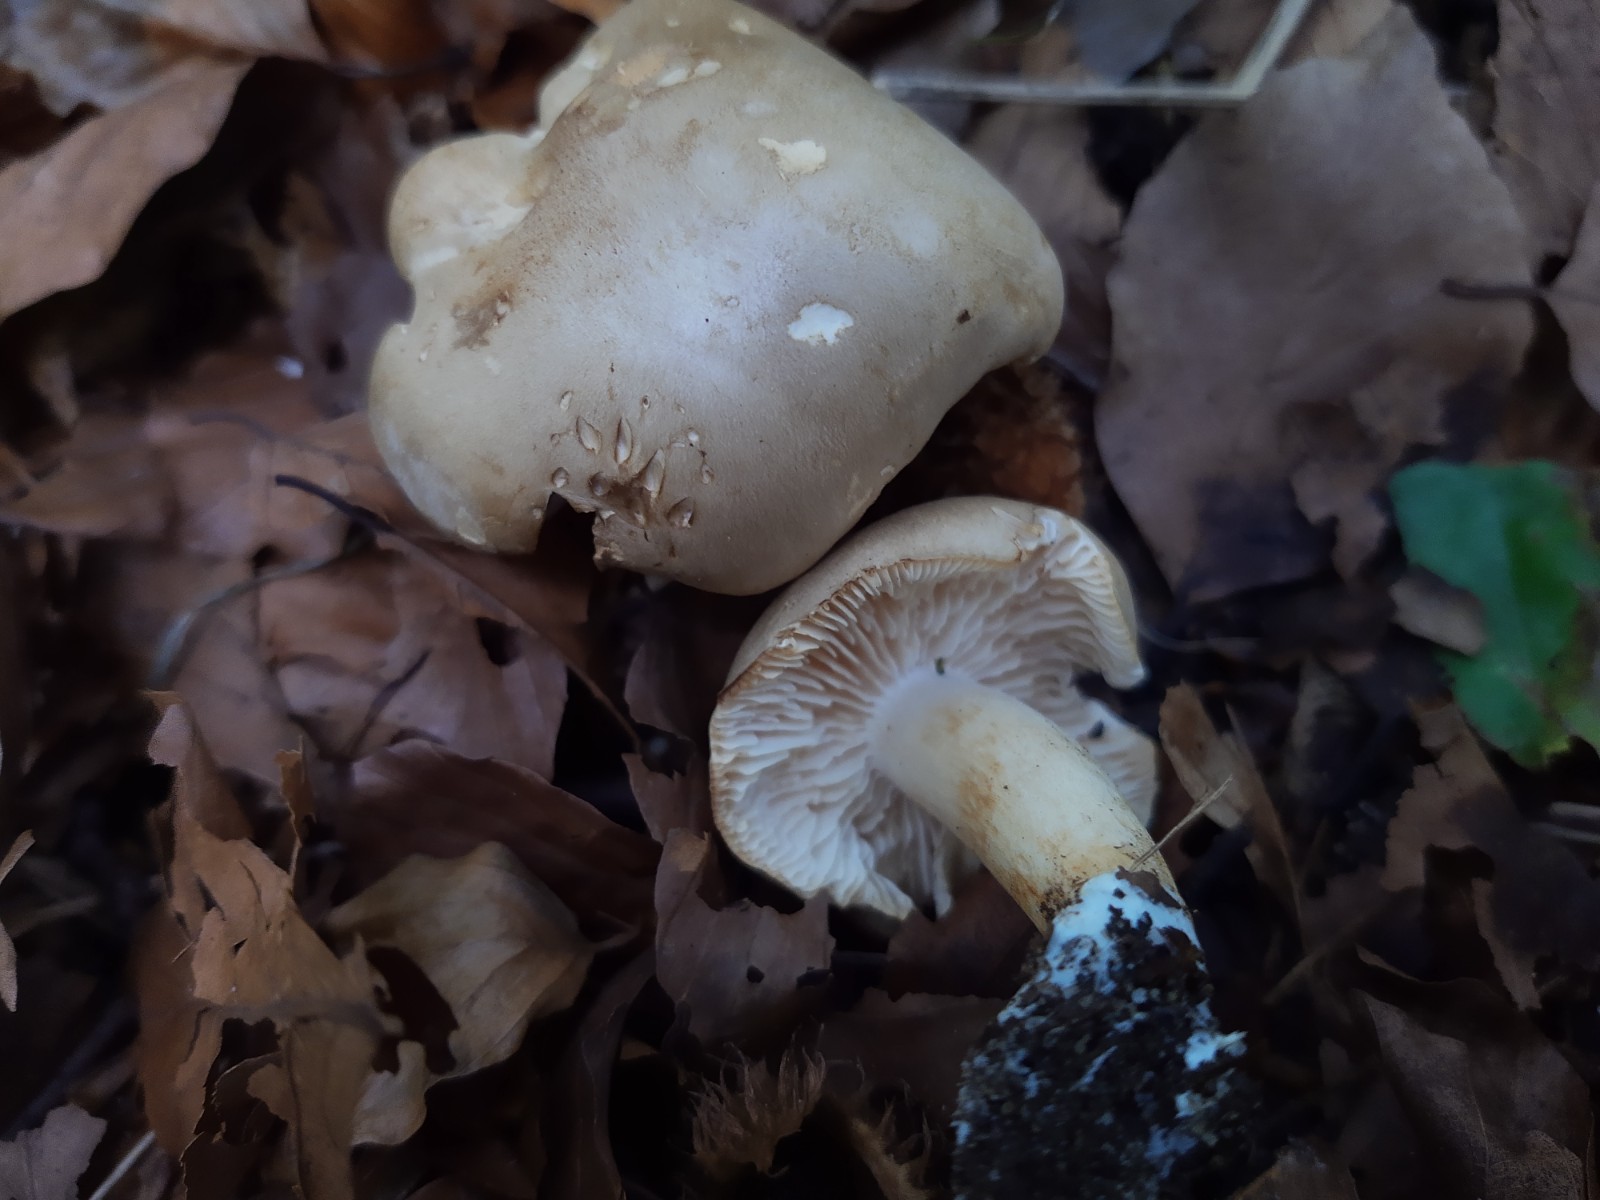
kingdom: Fungi
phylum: Basidiomycota
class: Agaricomycetes
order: Agaricales
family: Tricholomataceae
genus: Tricholoma
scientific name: Tricholoma lascivum
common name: stinkende ridderhat
